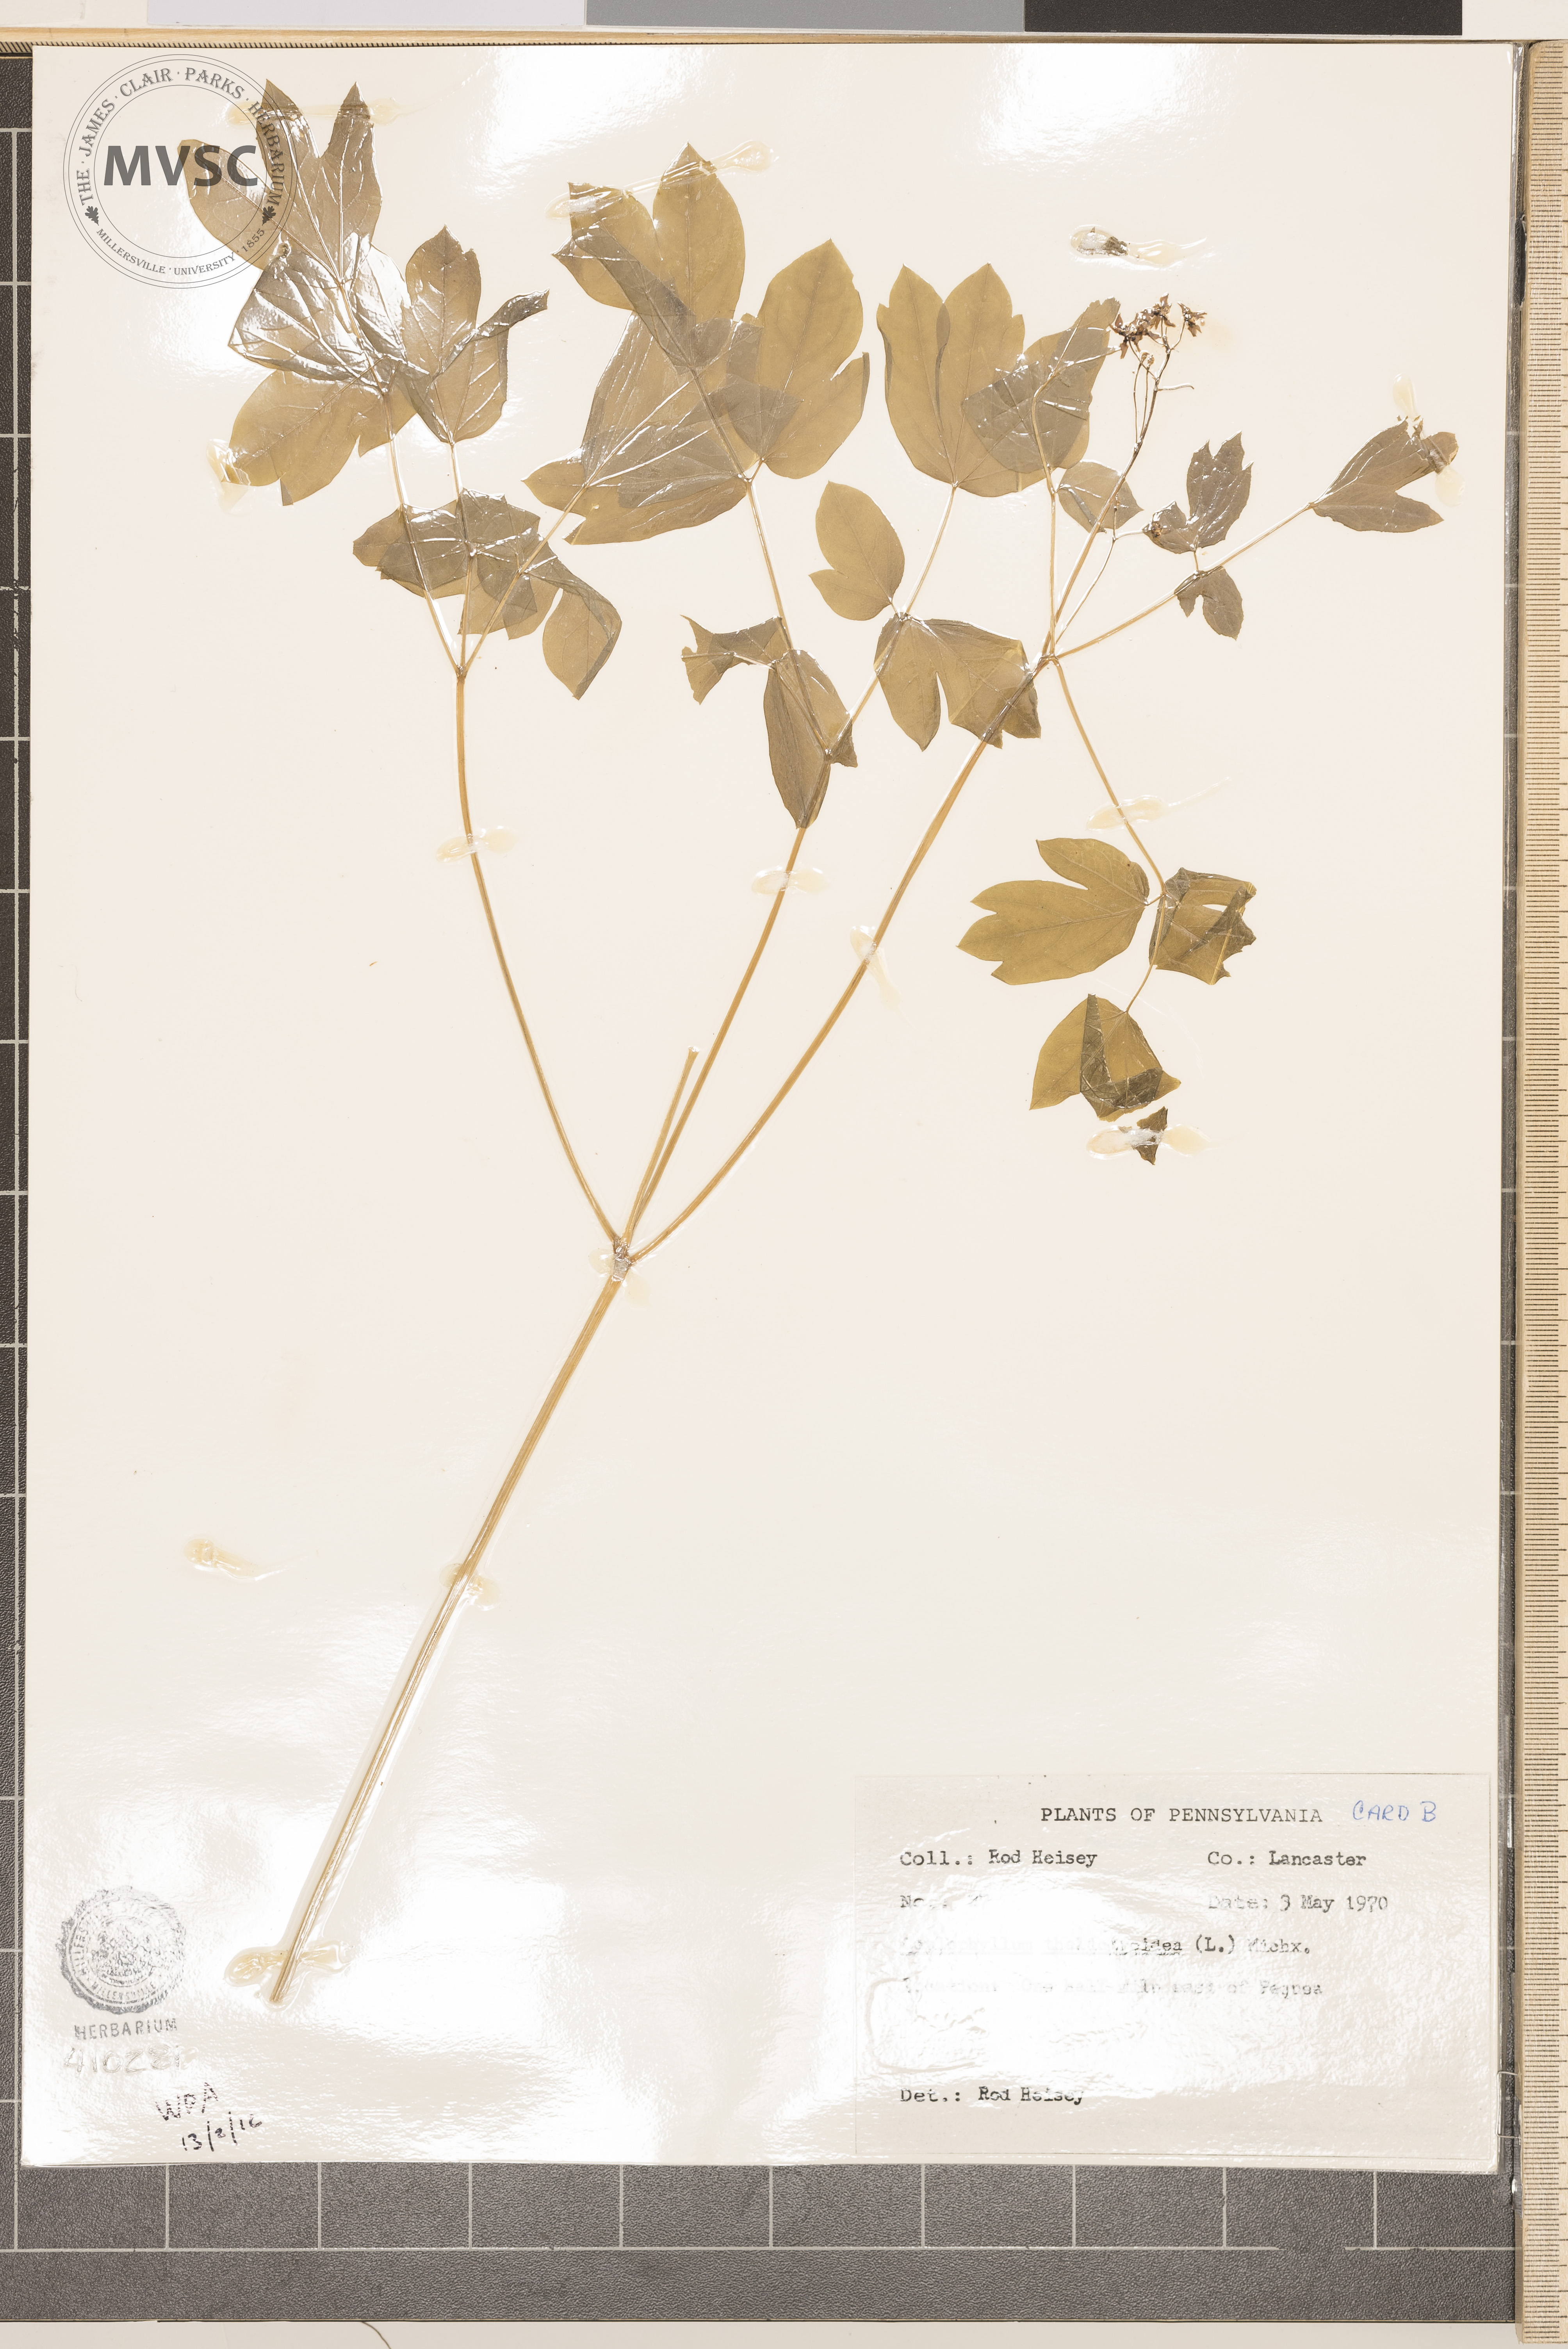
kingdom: Plantae
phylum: Tracheophyta
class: Magnoliopsida
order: Ranunculales
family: Berberidaceae
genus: Caulophyllum
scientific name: Caulophyllum thalictroides
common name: Blue cohosh
